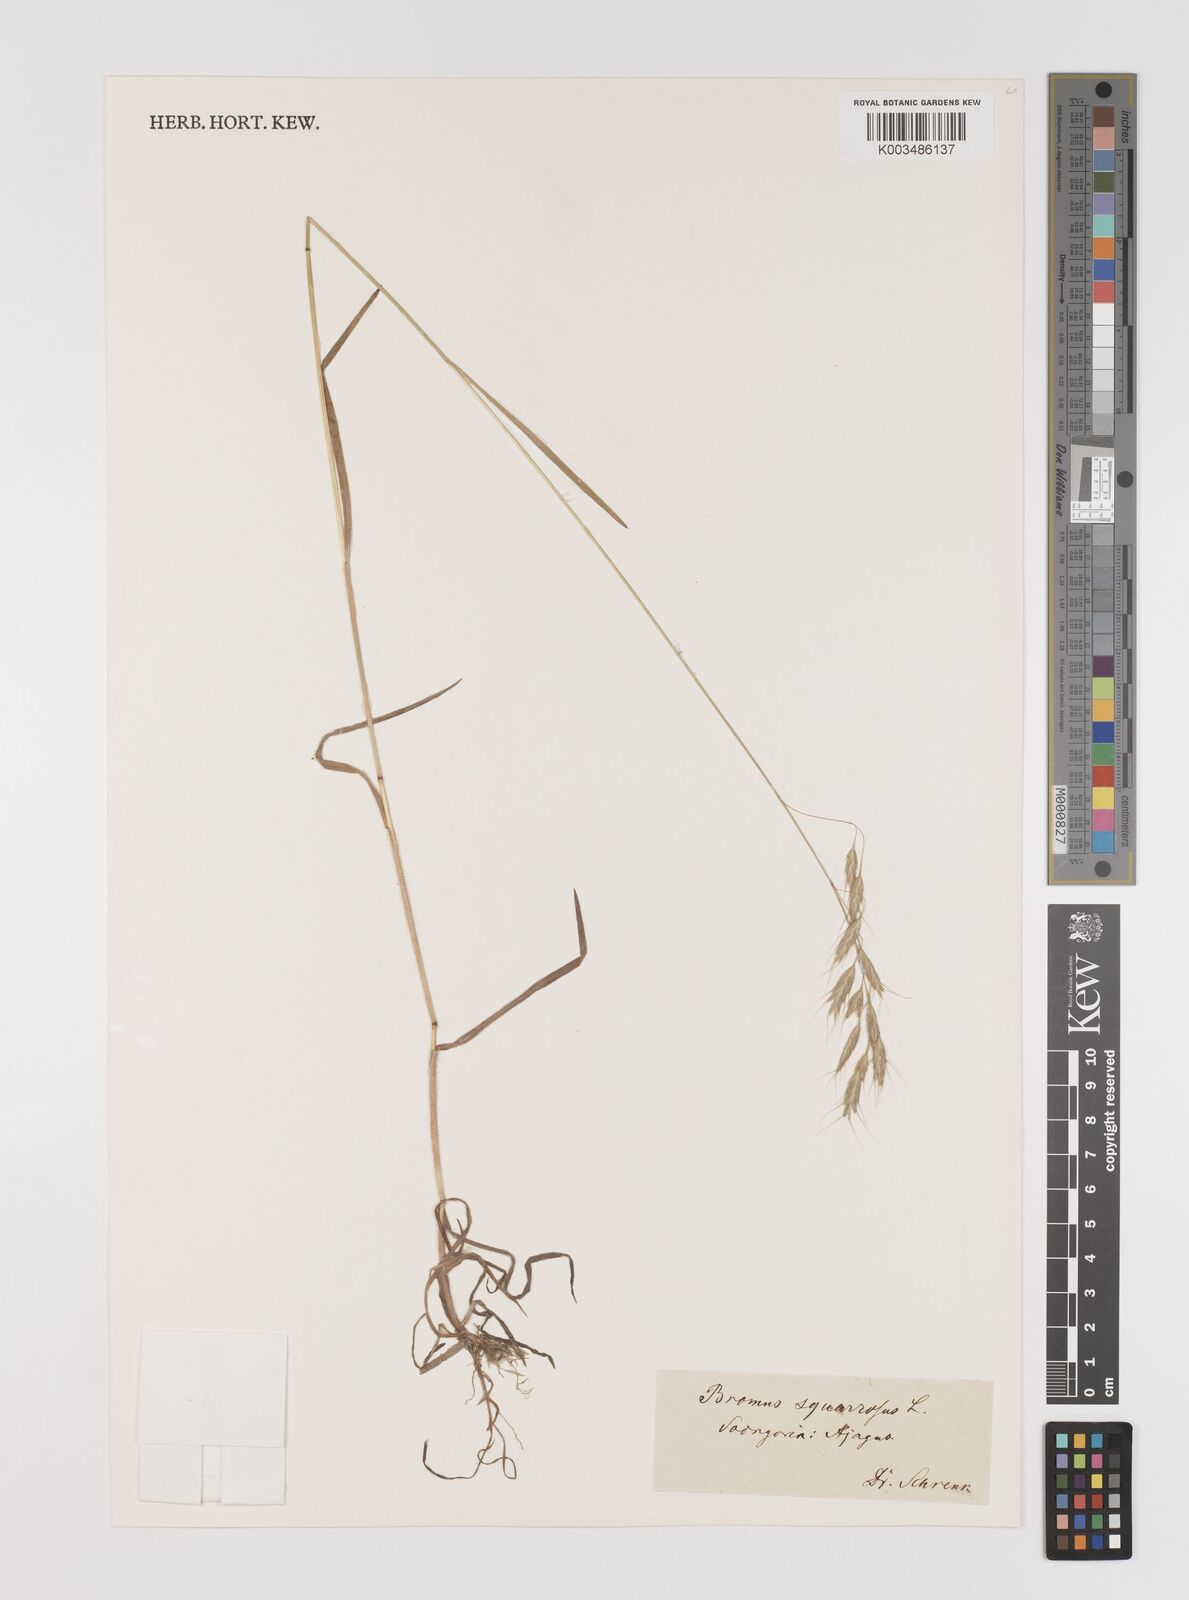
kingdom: Plantae
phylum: Tracheophyta
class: Liliopsida
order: Poales
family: Poaceae
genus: Bromus
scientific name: Bromus squarrosus
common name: Corn brome
